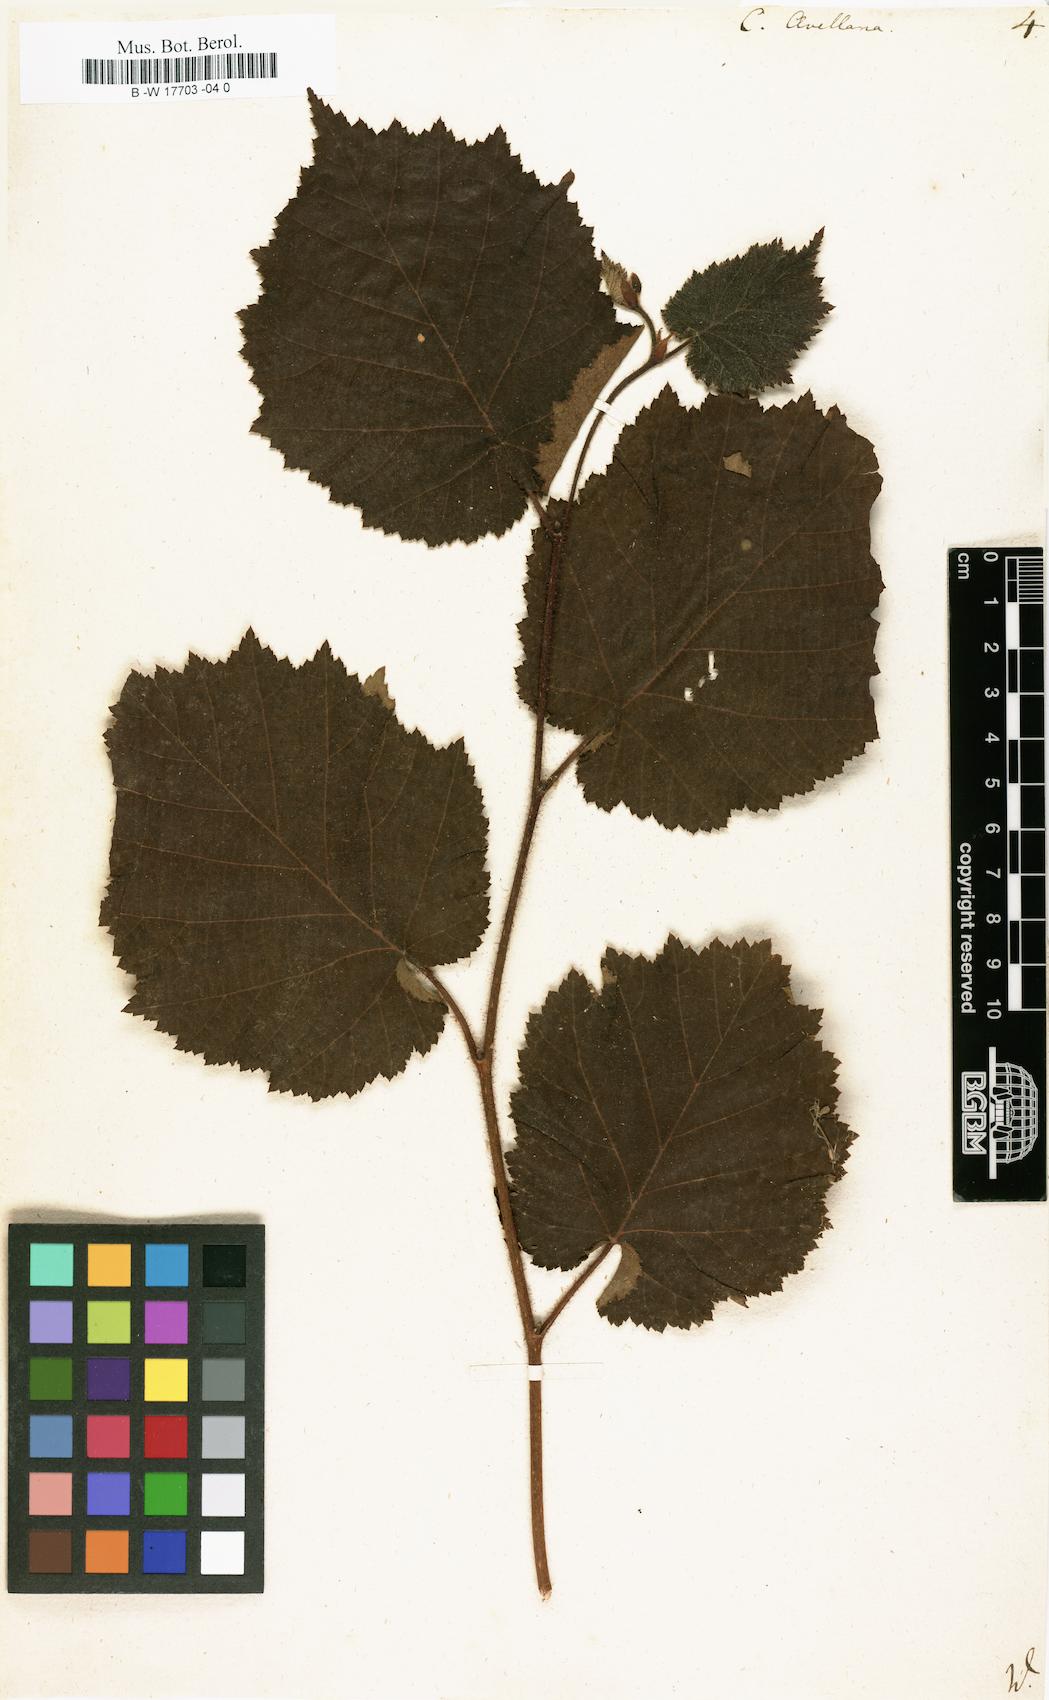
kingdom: Plantae
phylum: Tracheophyta
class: Magnoliopsida
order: Fagales
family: Betulaceae
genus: Corylus
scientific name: Corylus avellana
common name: European hazel
